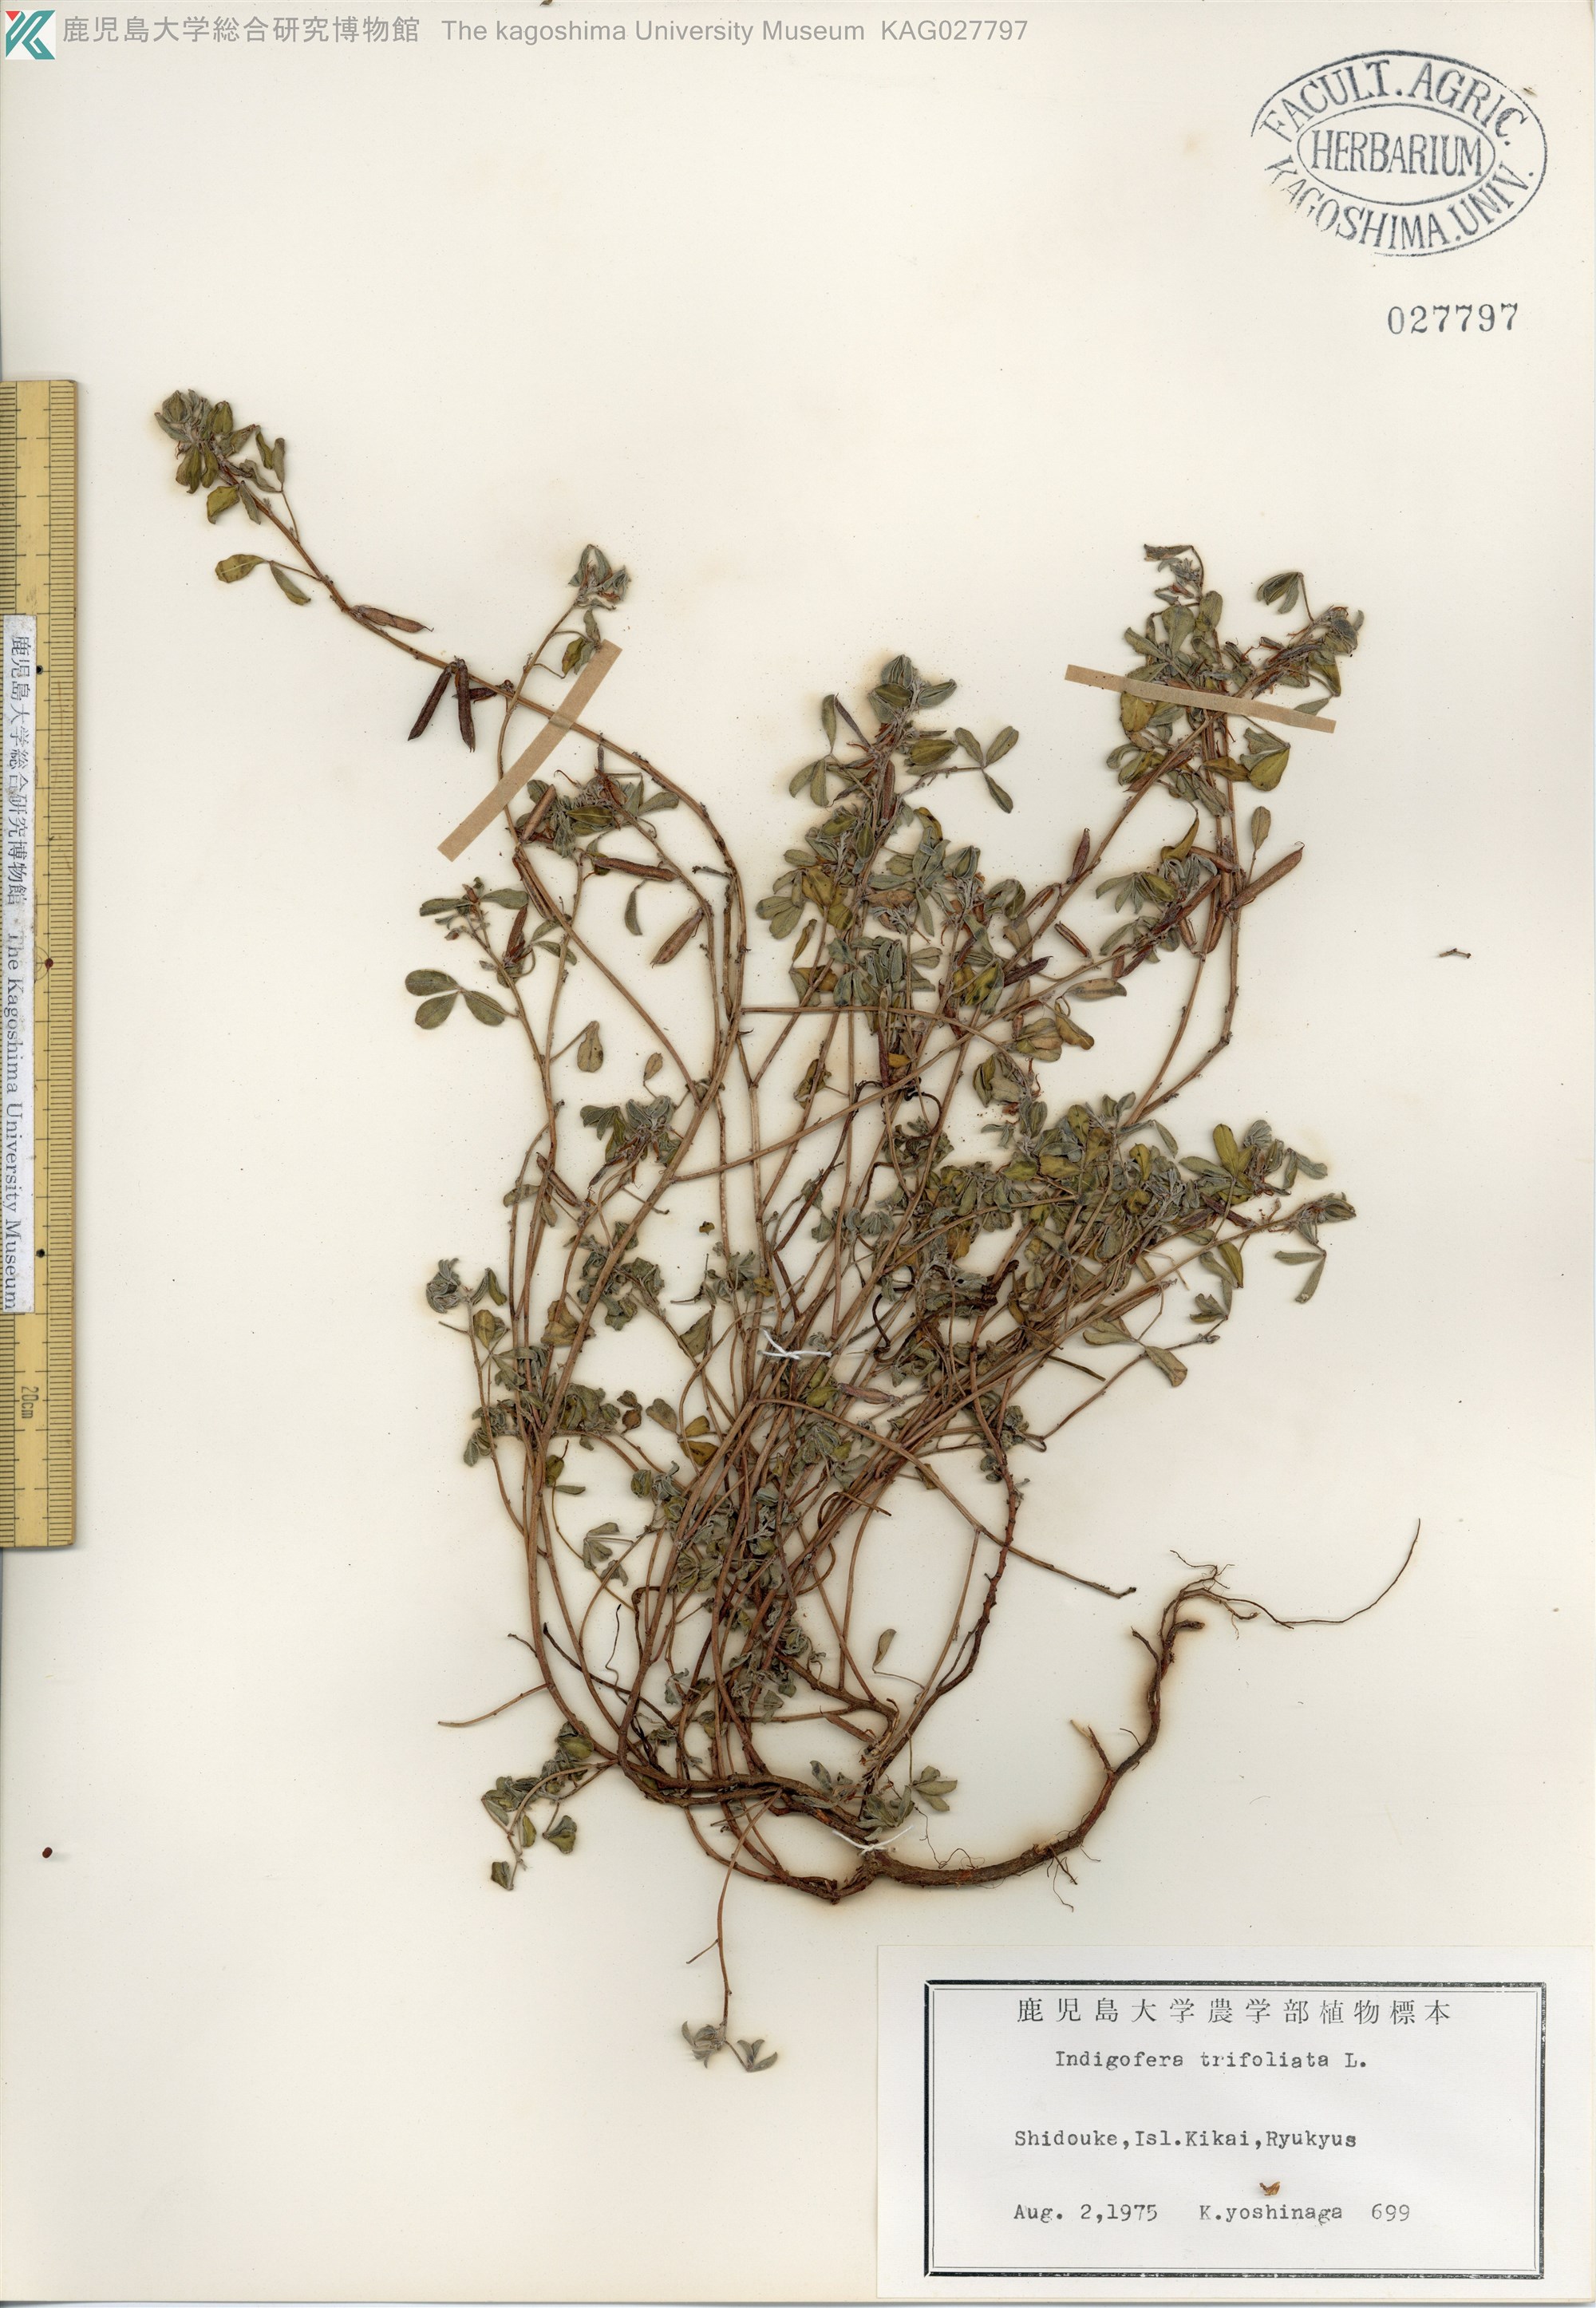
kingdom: Plantae
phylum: Tracheophyta
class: Magnoliopsida
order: Fabales
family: Fabaceae
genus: Indigofera
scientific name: Indigofera trifoliata
